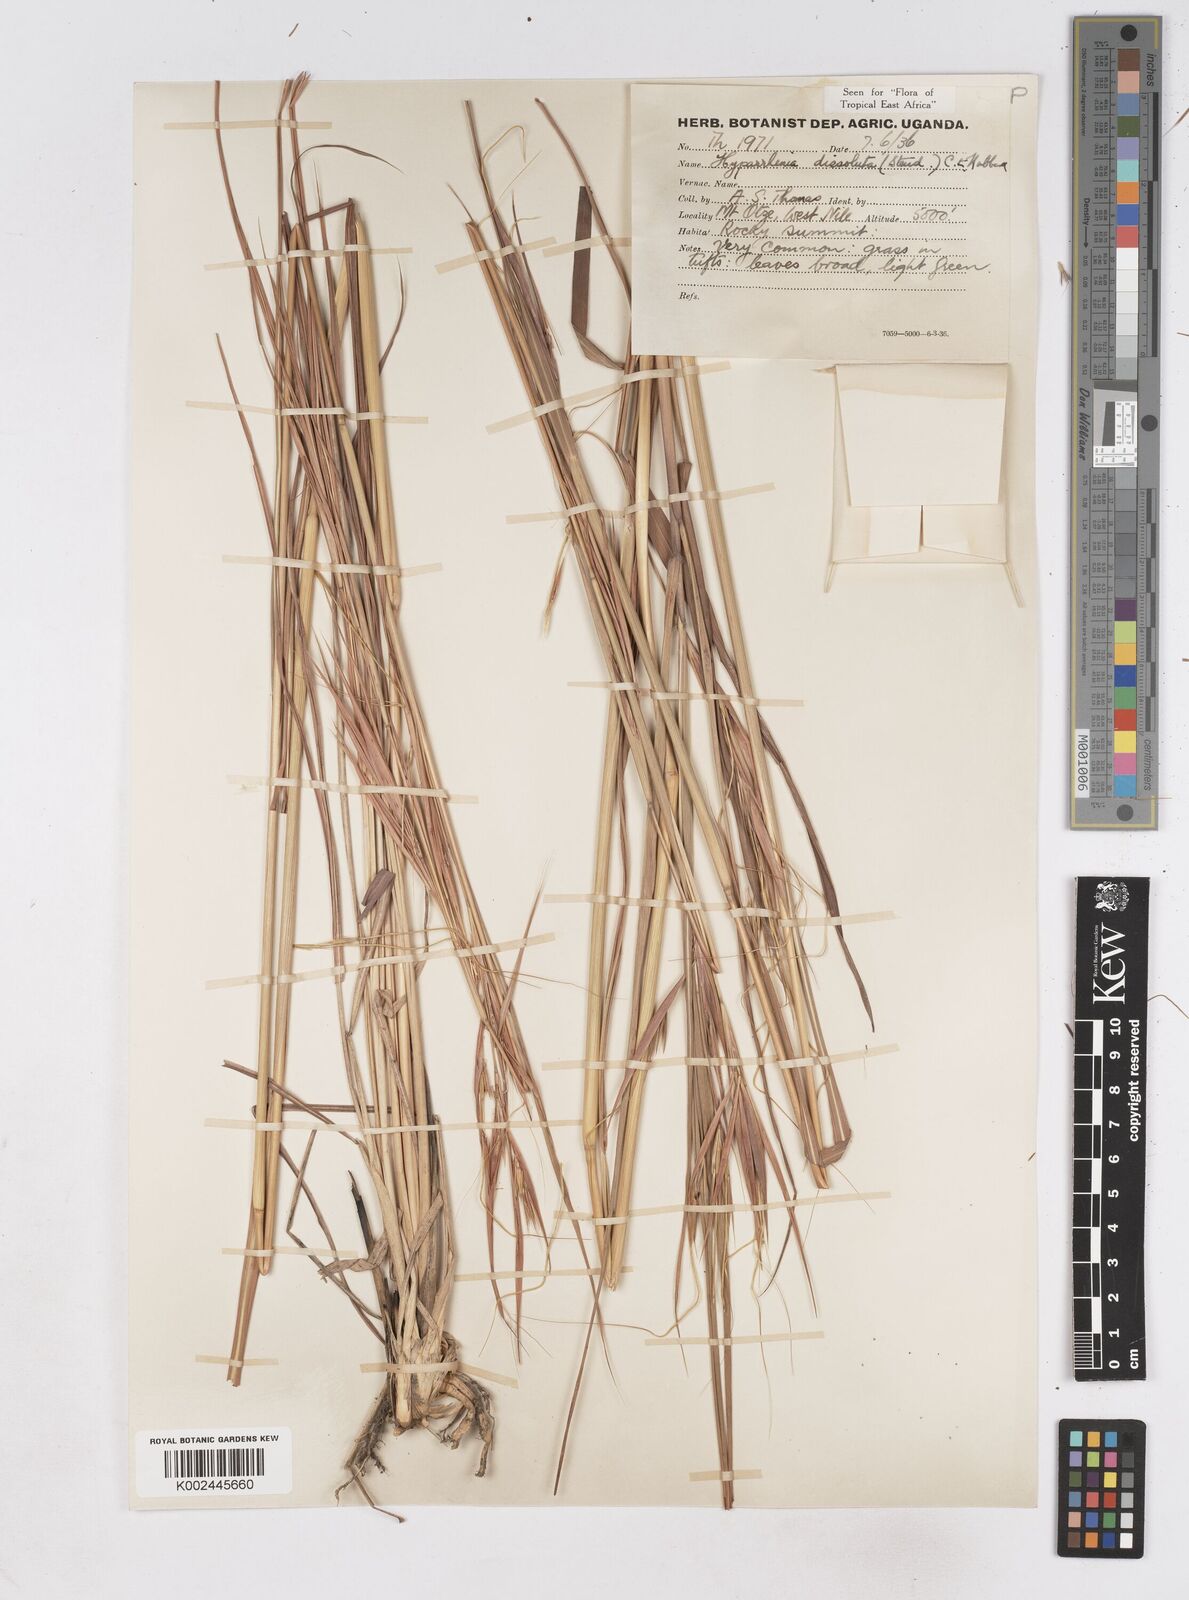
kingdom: Plantae
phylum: Tracheophyta
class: Liliopsida
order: Poales
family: Poaceae
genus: Hyperthelia
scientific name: Hyperthelia dissoluta
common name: Yellow thatching grass
